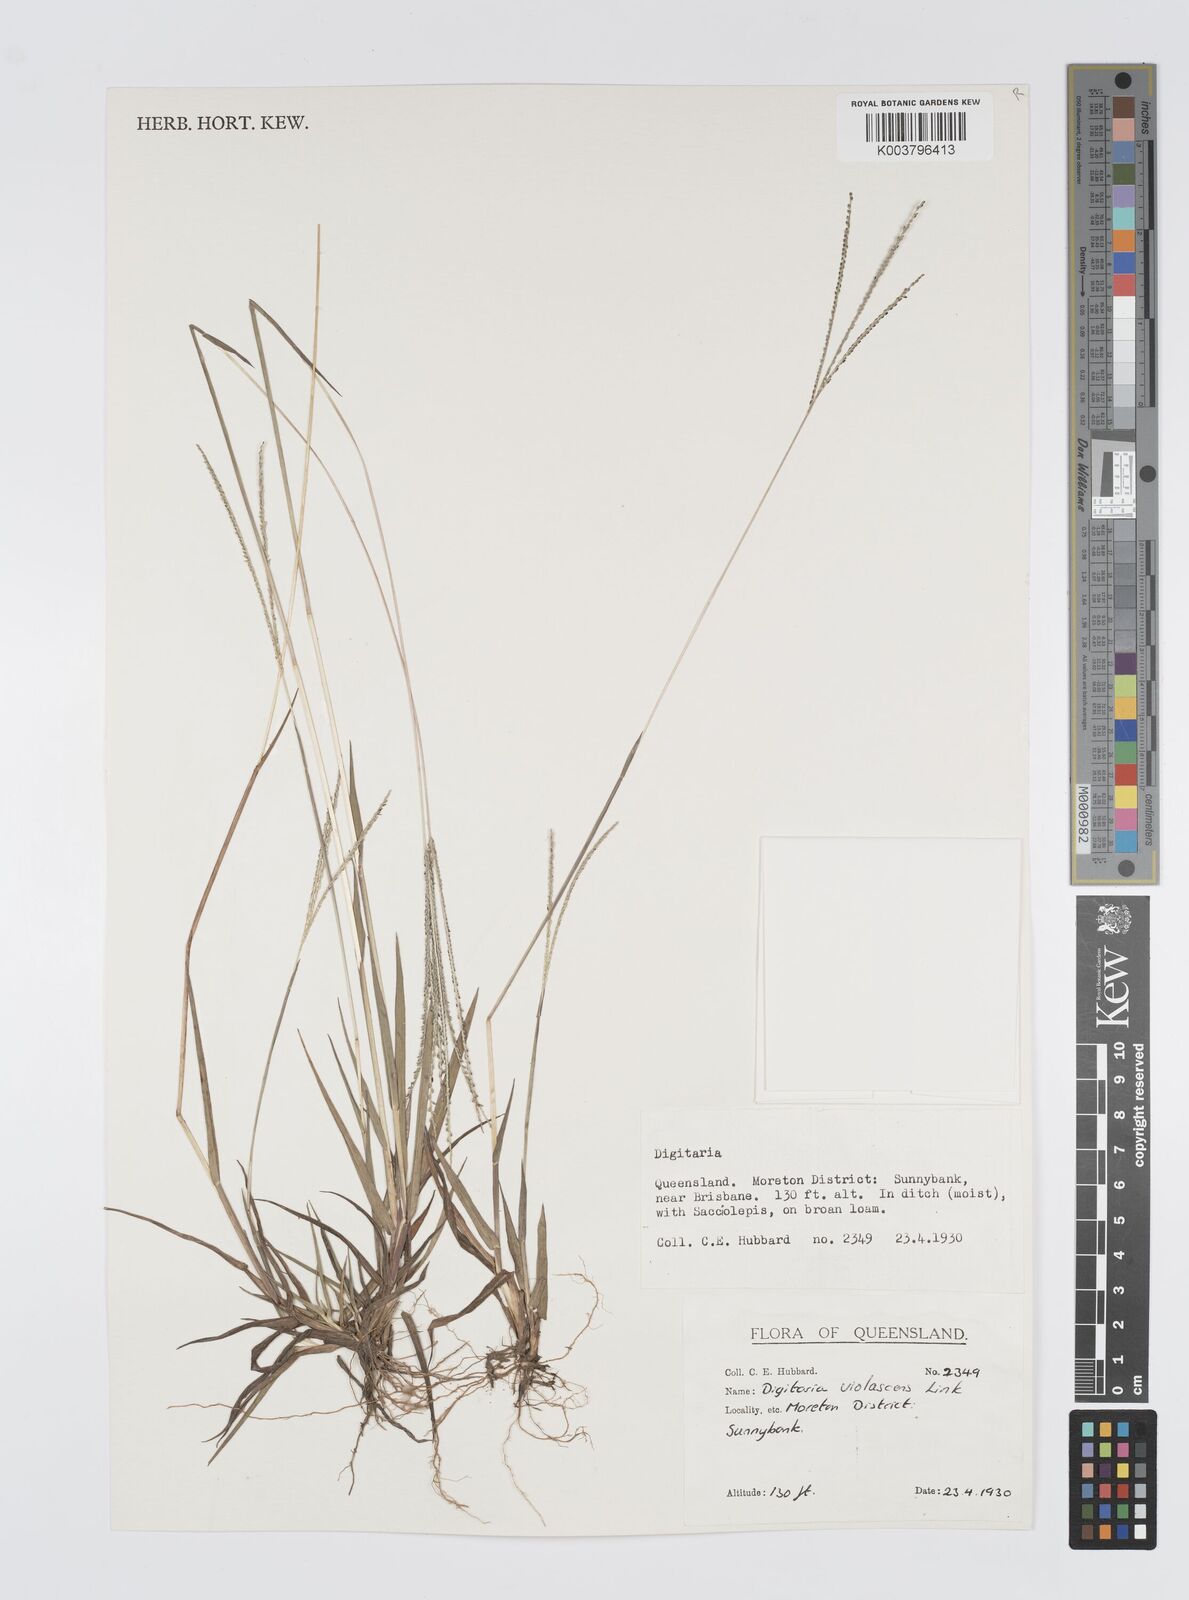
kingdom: Plantae
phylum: Tracheophyta
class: Liliopsida
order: Poales
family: Poaceae
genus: Digitaria
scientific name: Digitaria violascens
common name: Violet crabgrass
